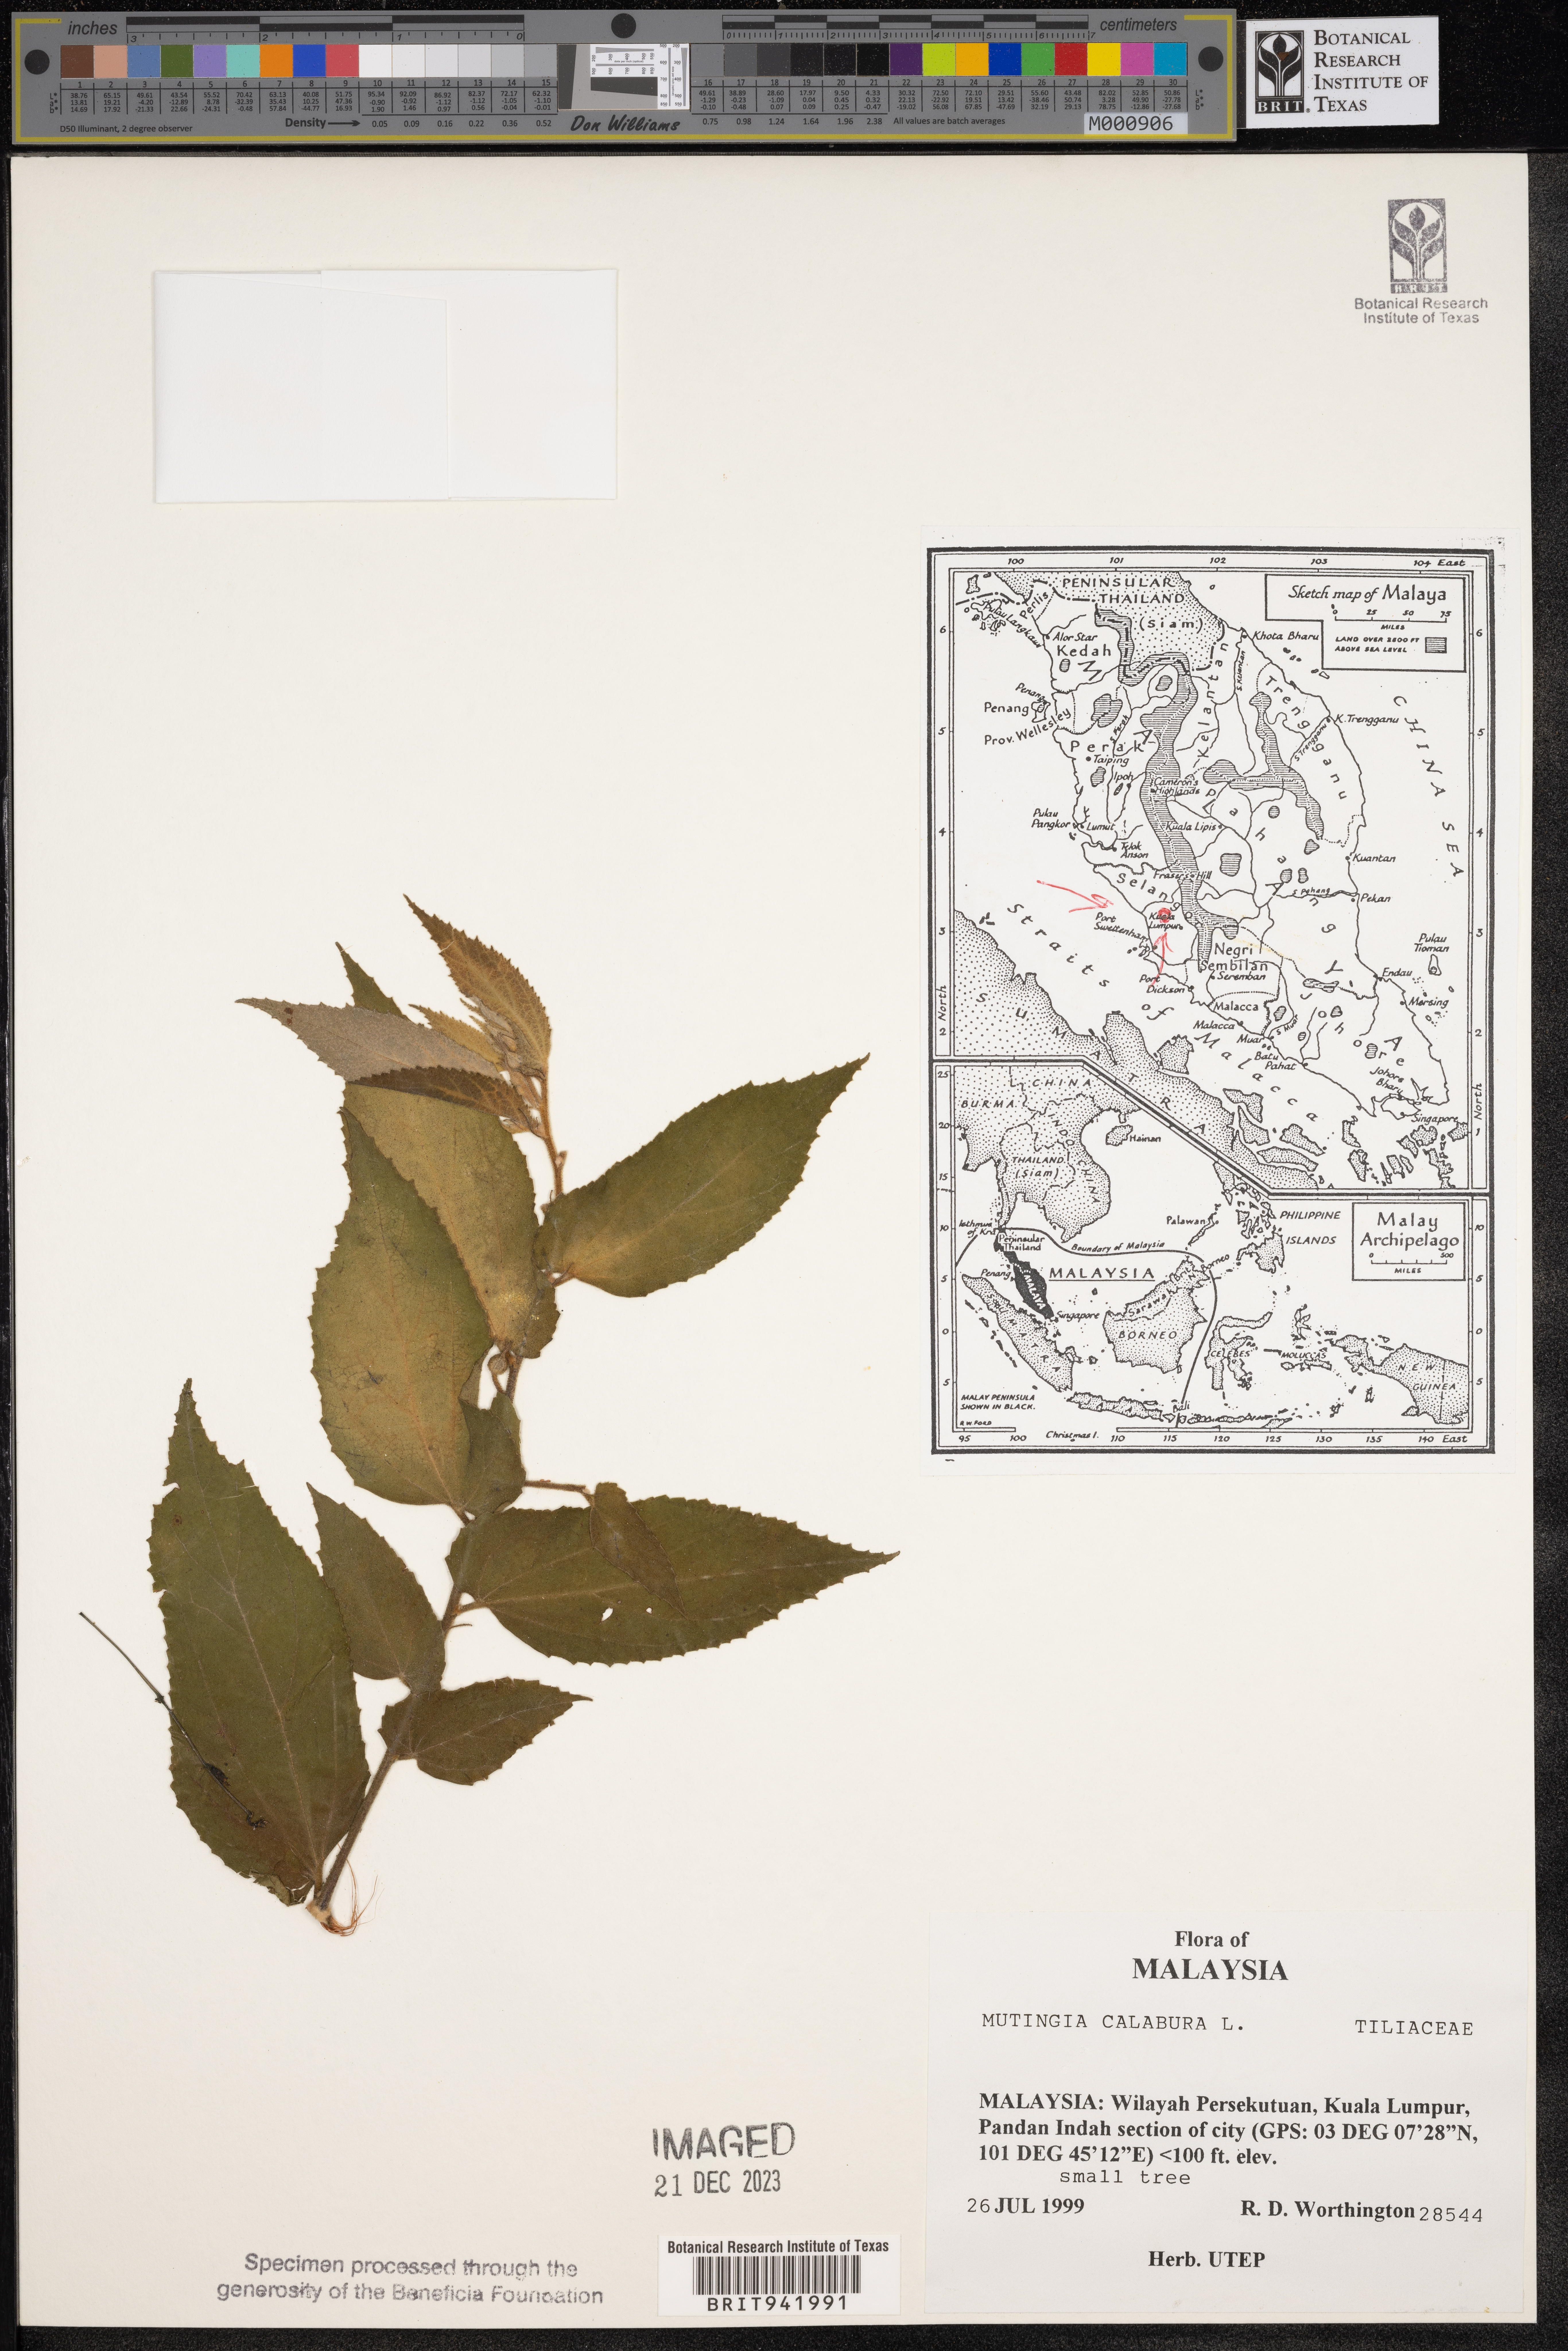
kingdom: Plantae
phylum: Tracheophyta
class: Magnoliopsida
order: Malvales
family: Muntingiaceae
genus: Muntingia
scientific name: Muntingia
